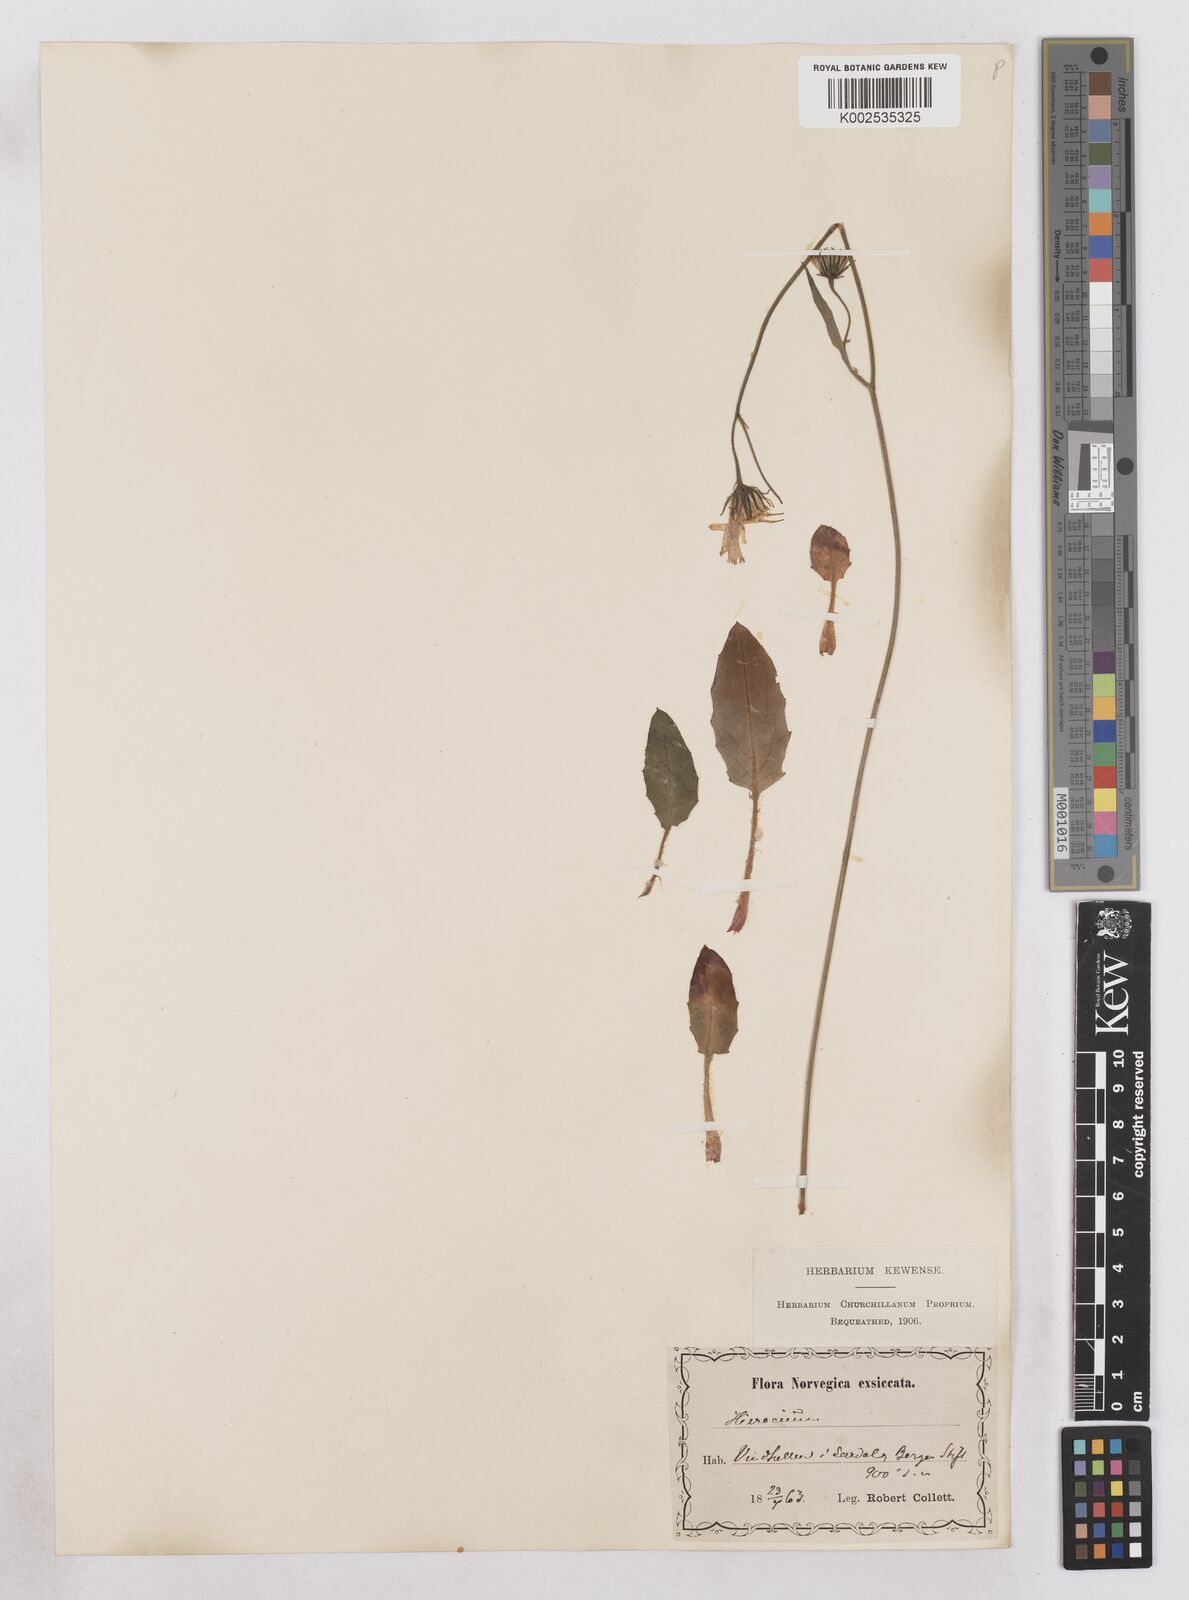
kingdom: Plantae
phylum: Tracheophyta
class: Magnoliopsida
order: Asterales
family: Asteraceae
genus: Hieracium
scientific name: Hieracium conspurcans
